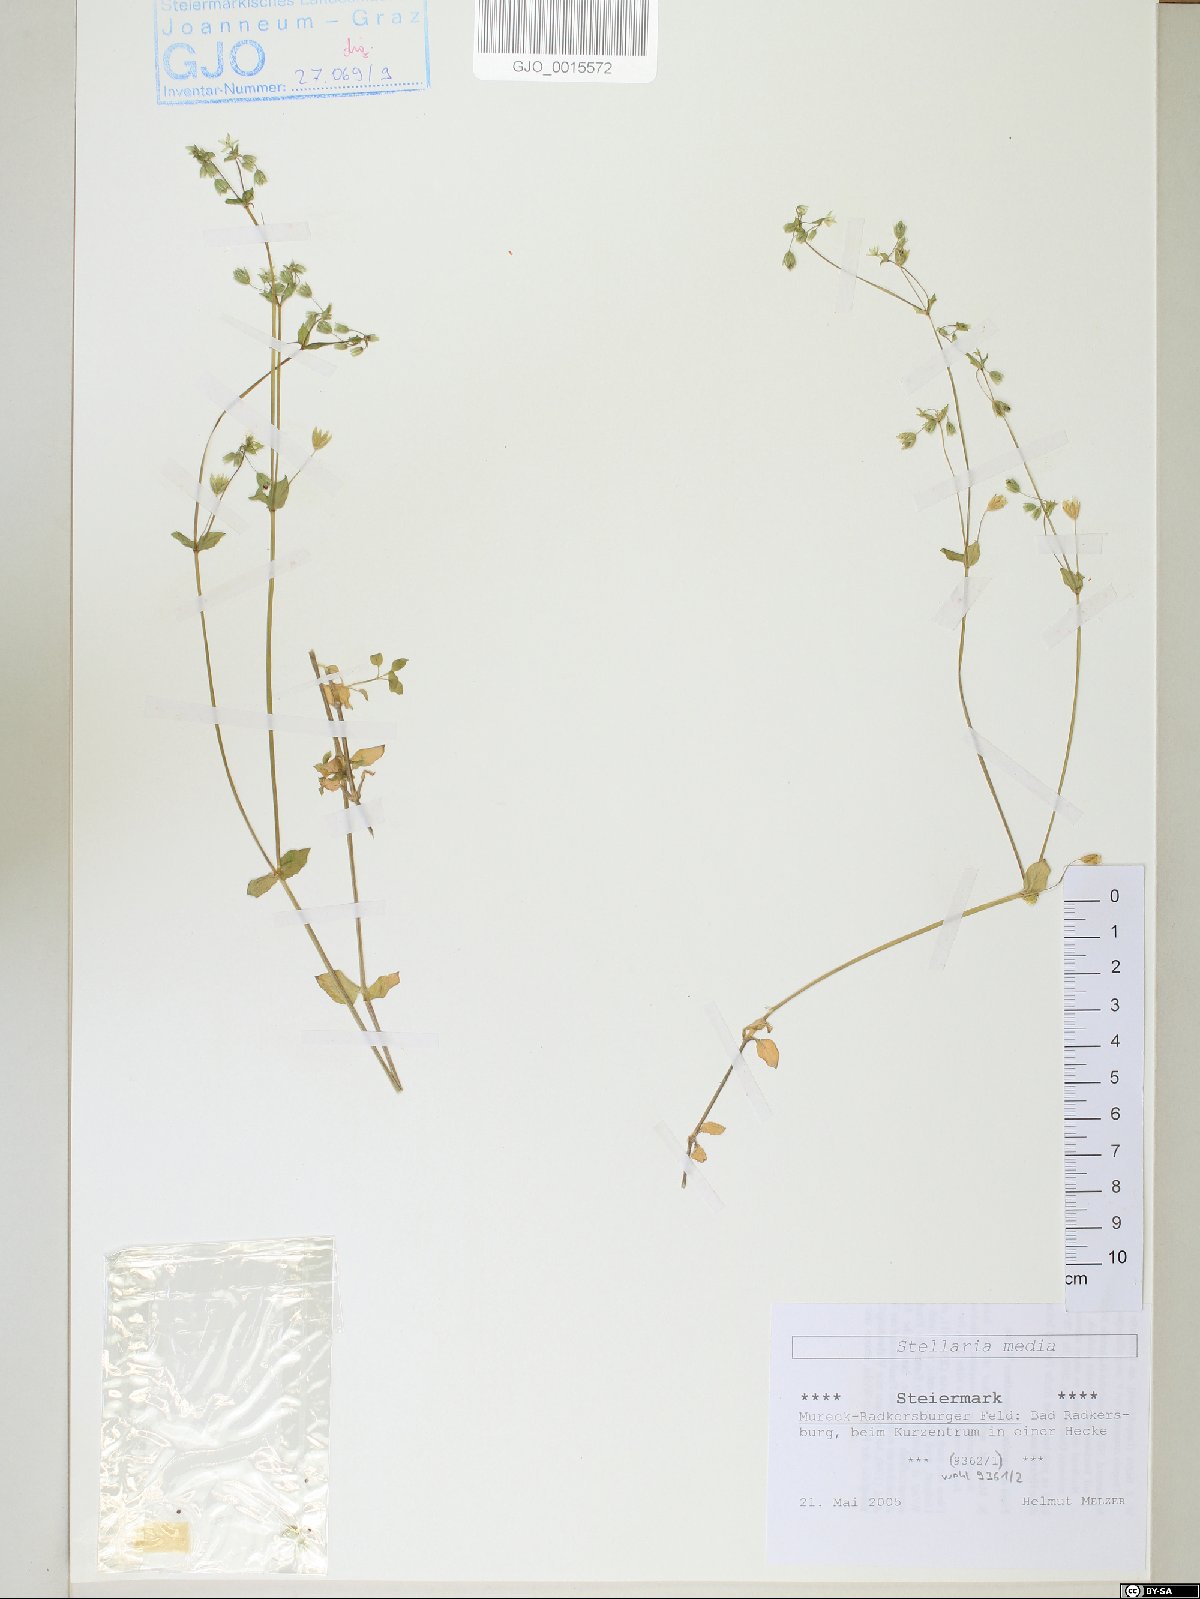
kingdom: Plantae
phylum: Tracheophyta
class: Magnoliopsida
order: Caryophyllales
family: Caryophyllaceae
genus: Stellaria
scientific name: Stellaria media
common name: Common chickweed
